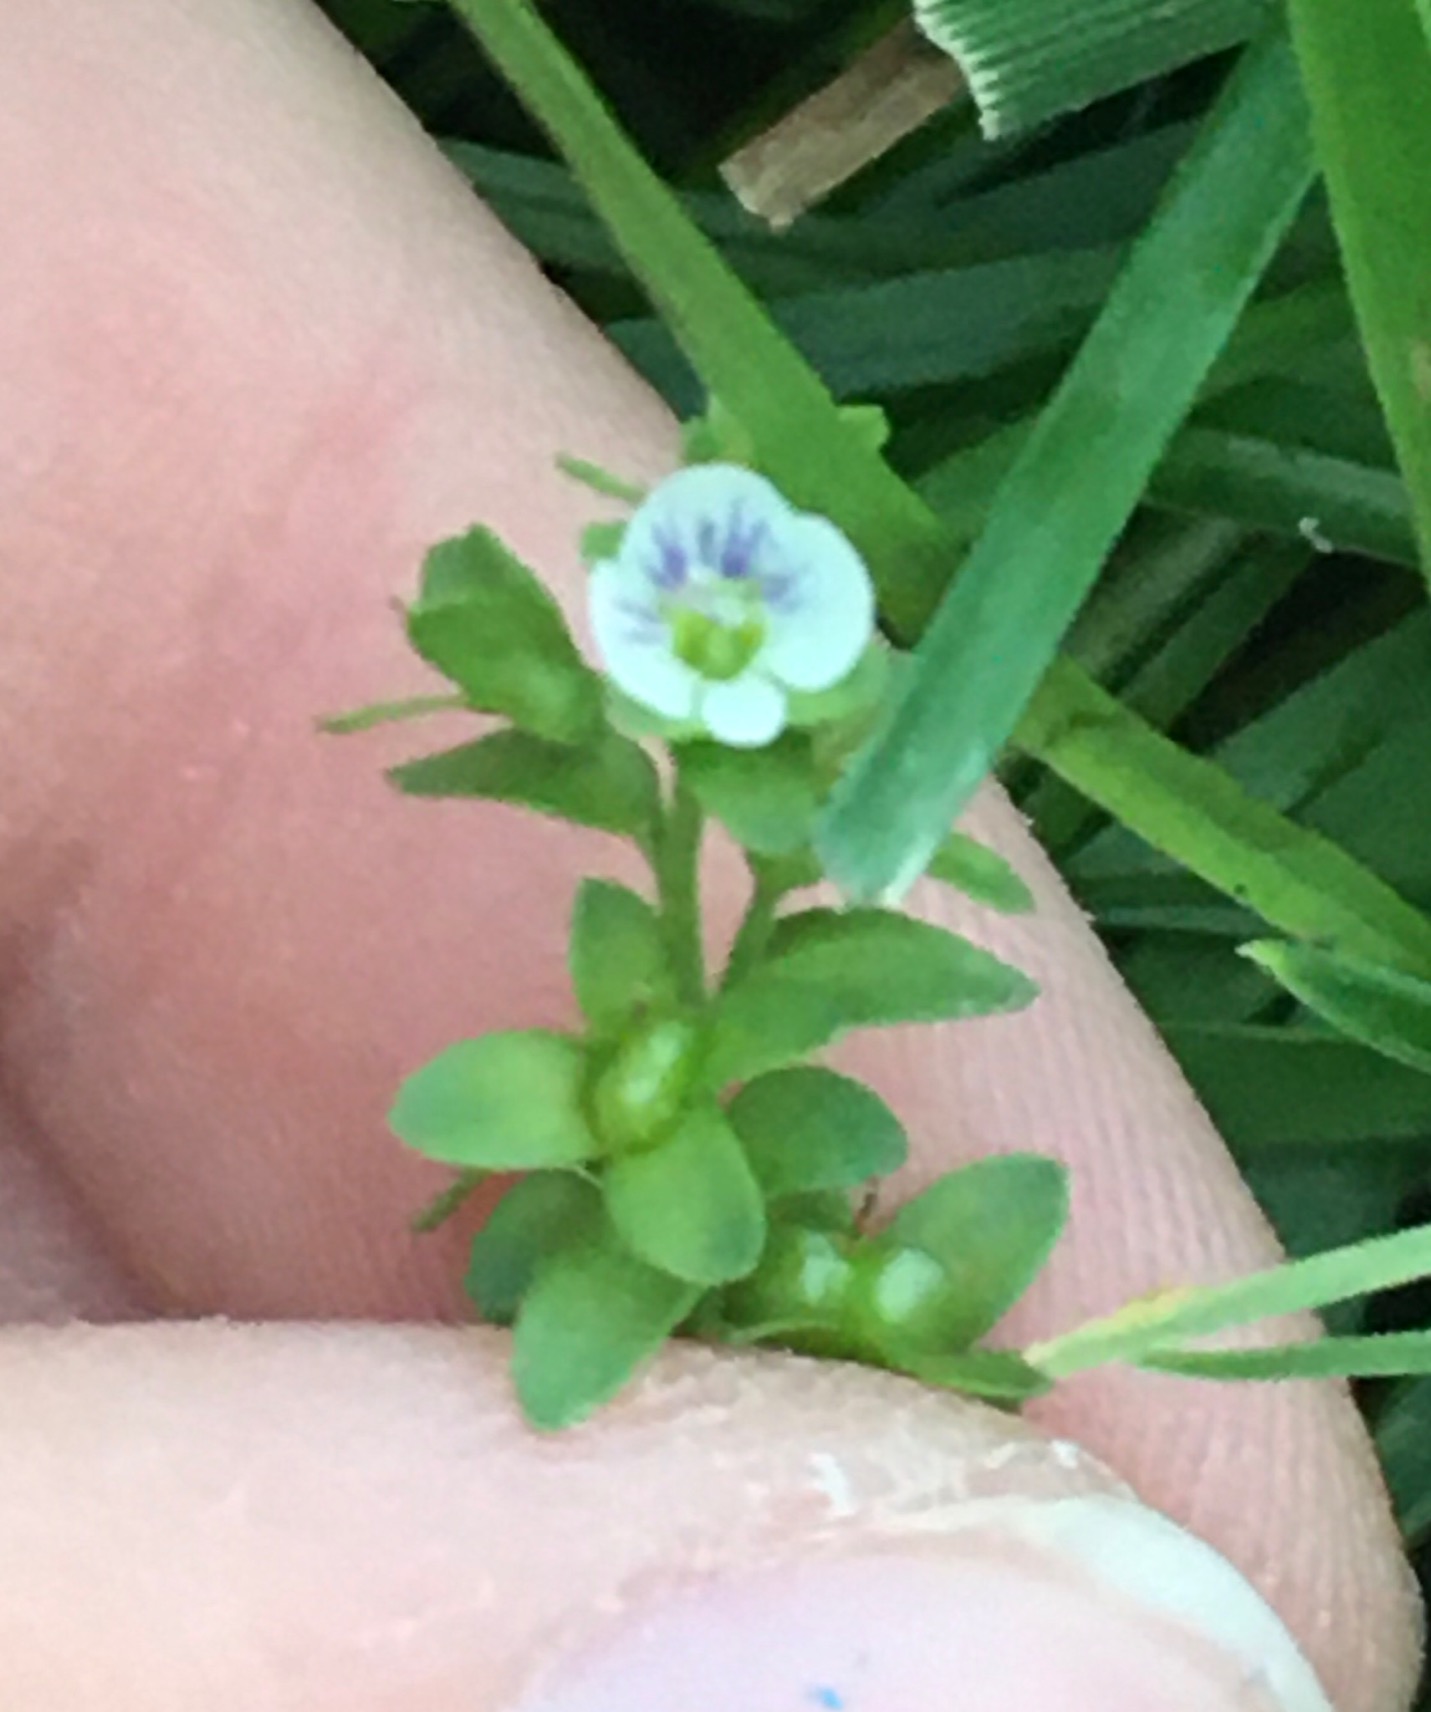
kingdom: Plantae
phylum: Tracheophyta
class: Magnoliopsida
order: Lamiales
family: Plantaginaceae
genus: Veronica
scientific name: Veronica serpyllifolia
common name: Glat ærenpris
